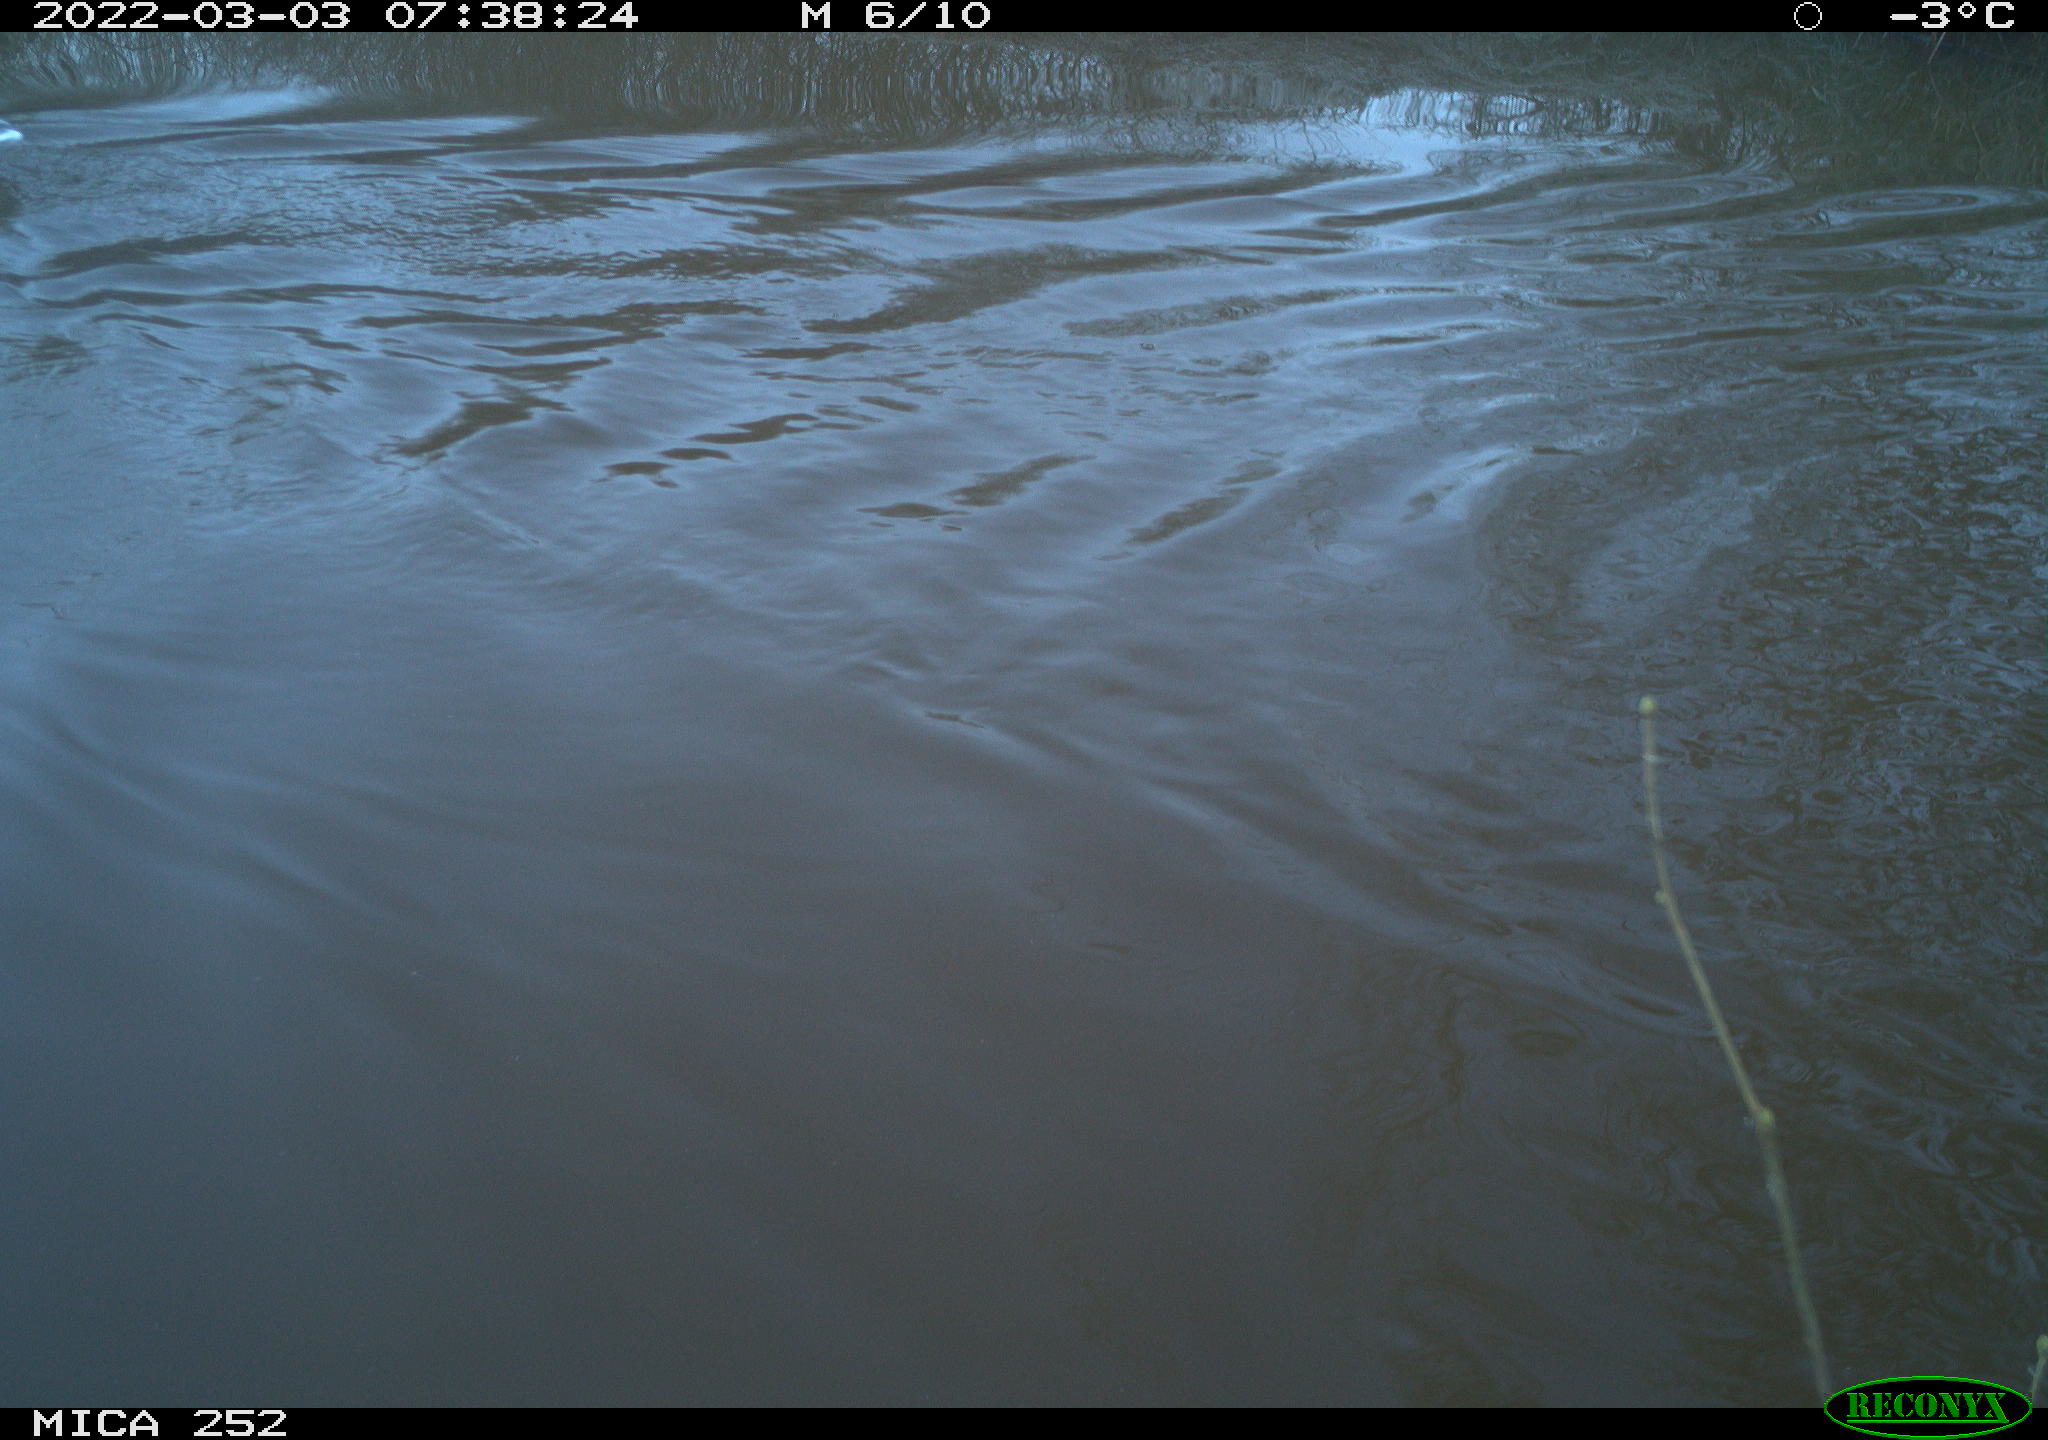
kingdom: Animalia
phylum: Chordata
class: Aves
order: Anseriformes
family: Anatidae
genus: Anser
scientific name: Anser anser
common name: Greylag goose
